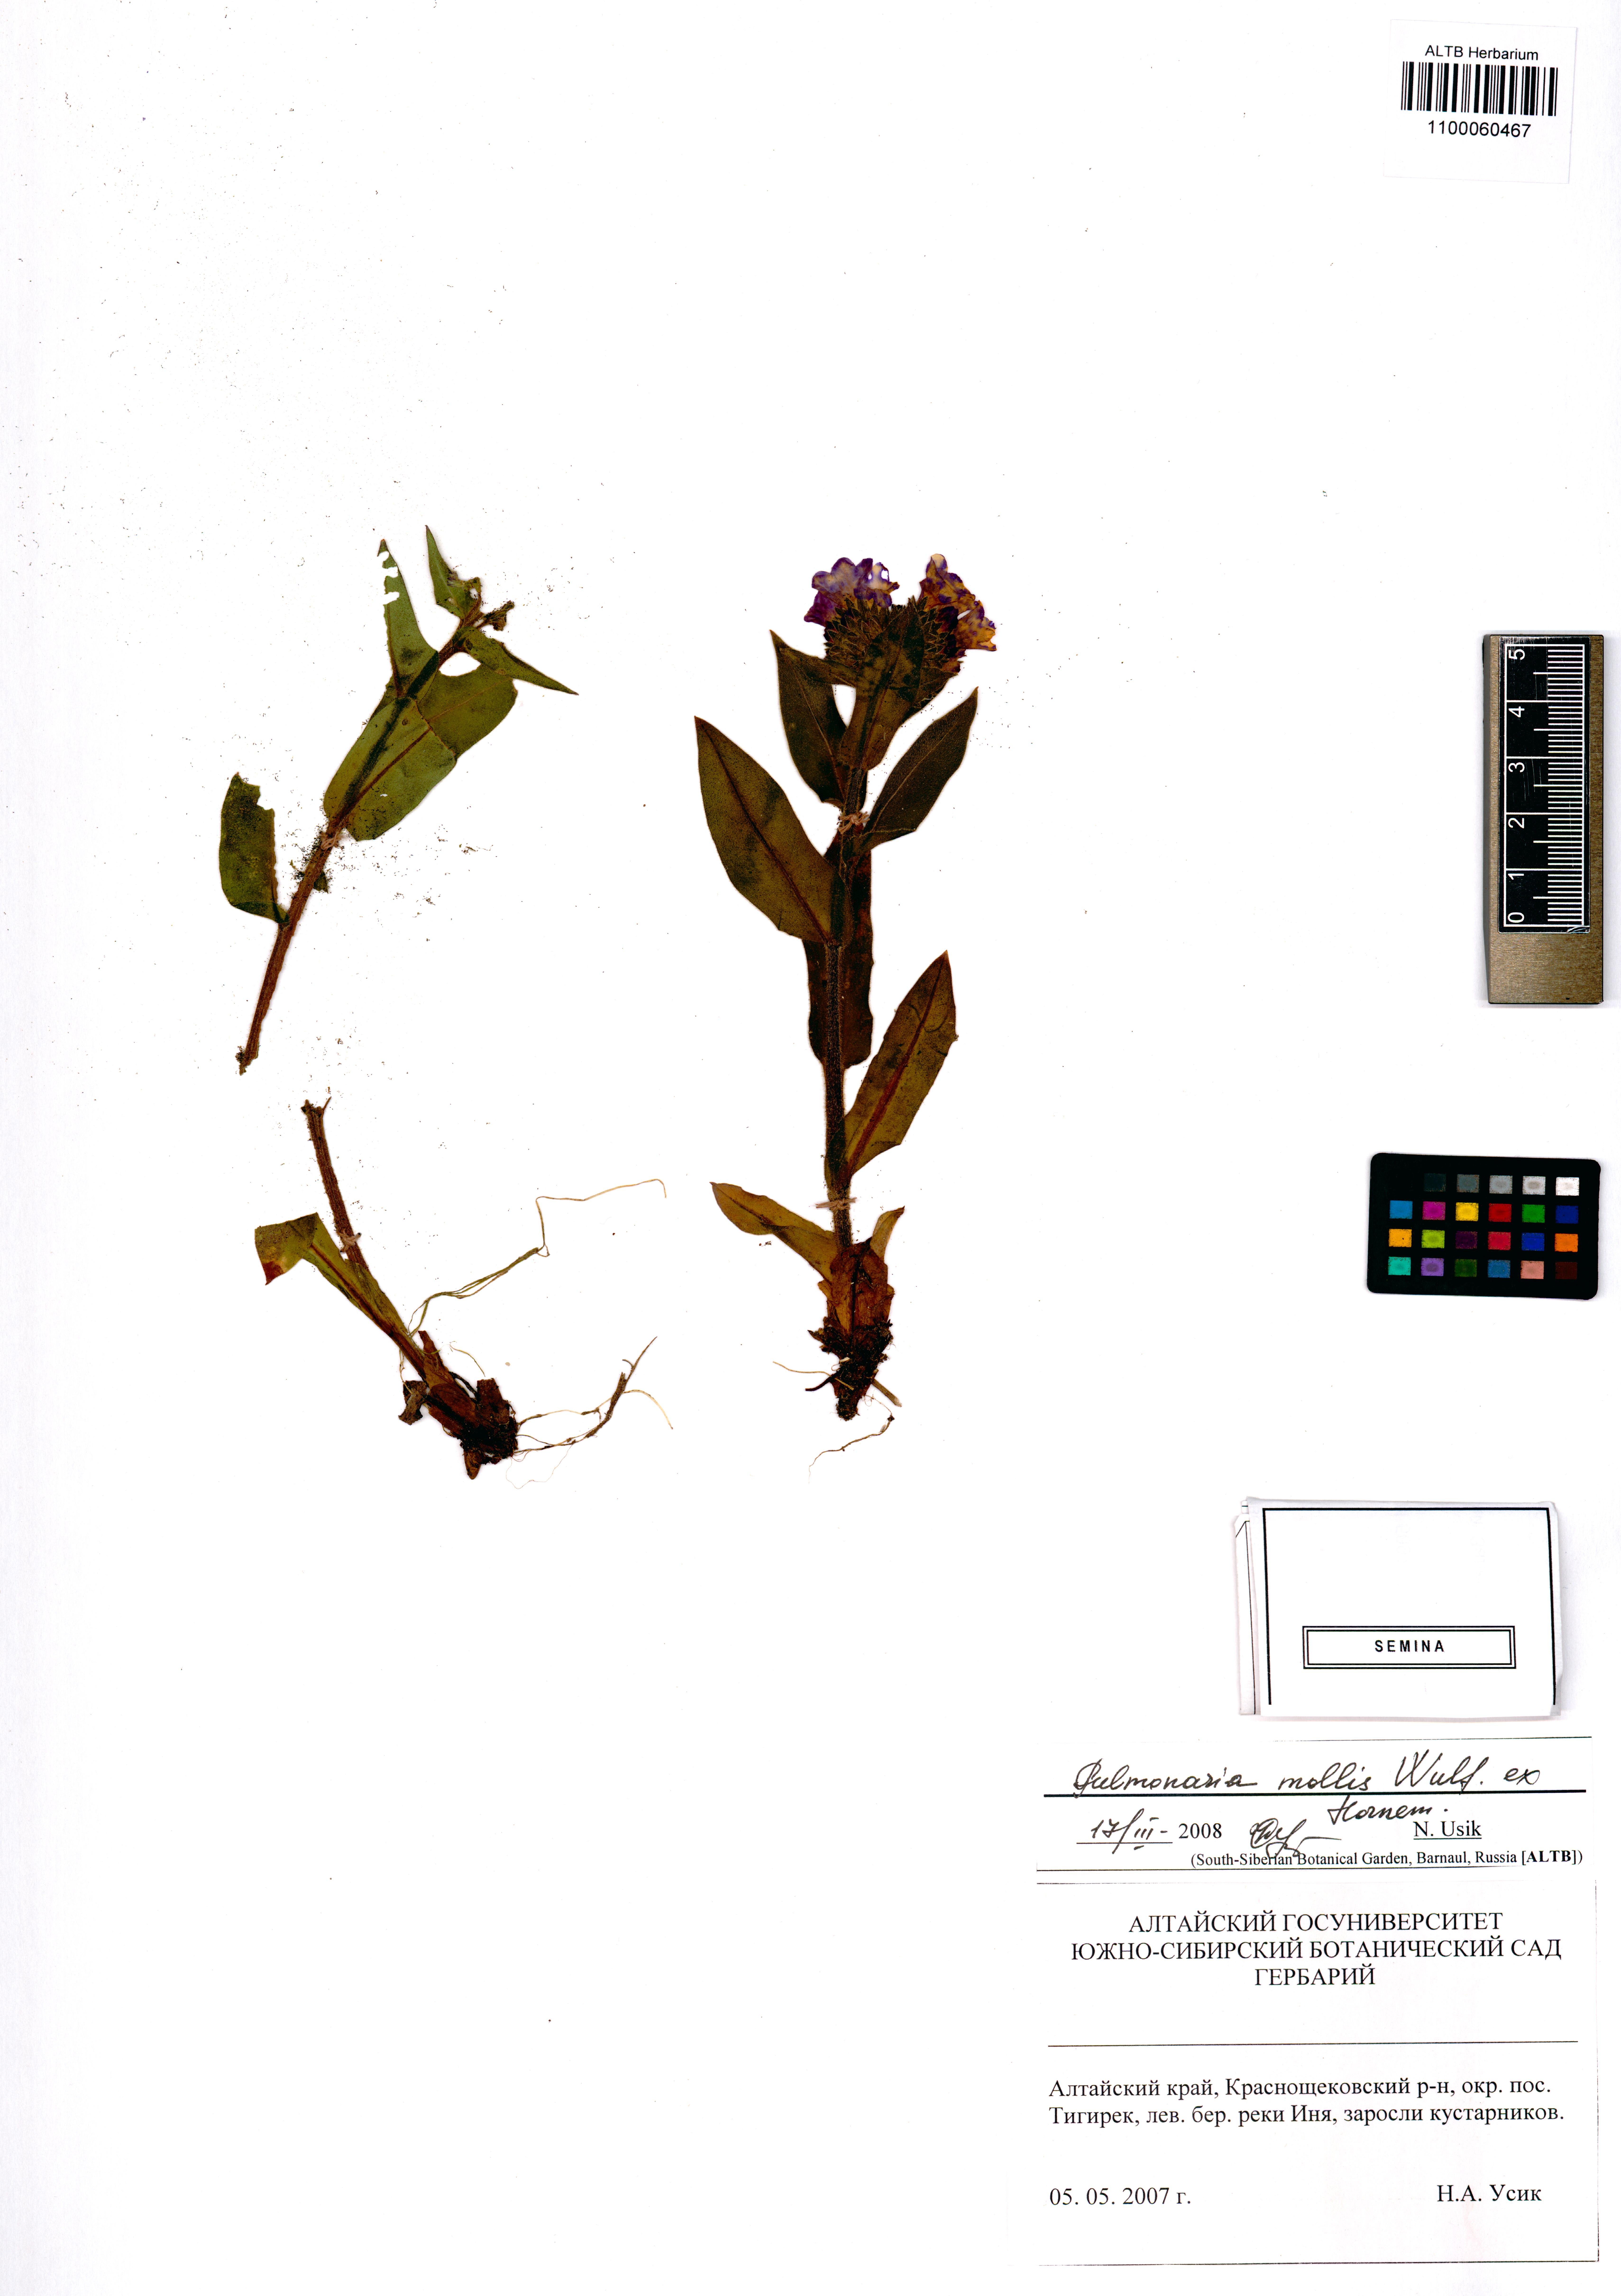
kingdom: Plantae
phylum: Tracheophyta
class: Magnoliopsida
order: Boraginales
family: Boraginaceae
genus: Pulmonaria
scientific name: Pulmonaria mollis
